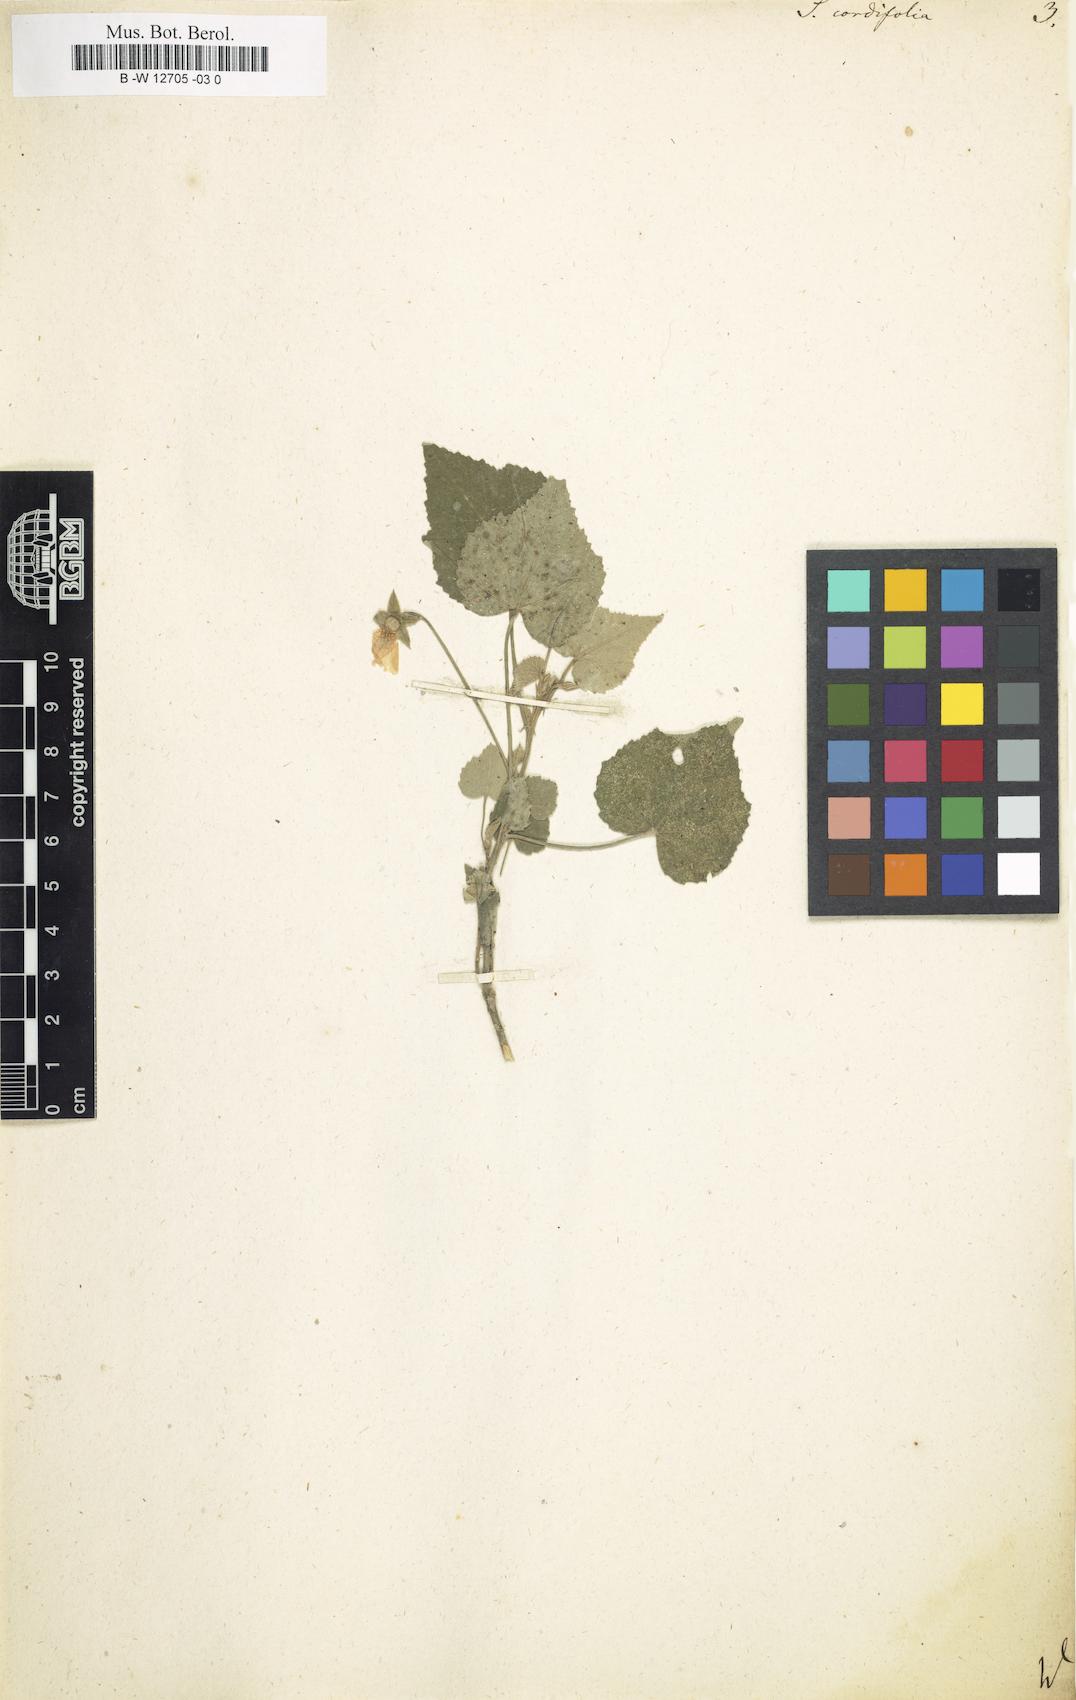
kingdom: Plantae
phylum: Tracheophyta
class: Magnoliopsida
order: Malvales
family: Malvaceae
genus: Sida
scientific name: Sida cordifolia
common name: Ilima
